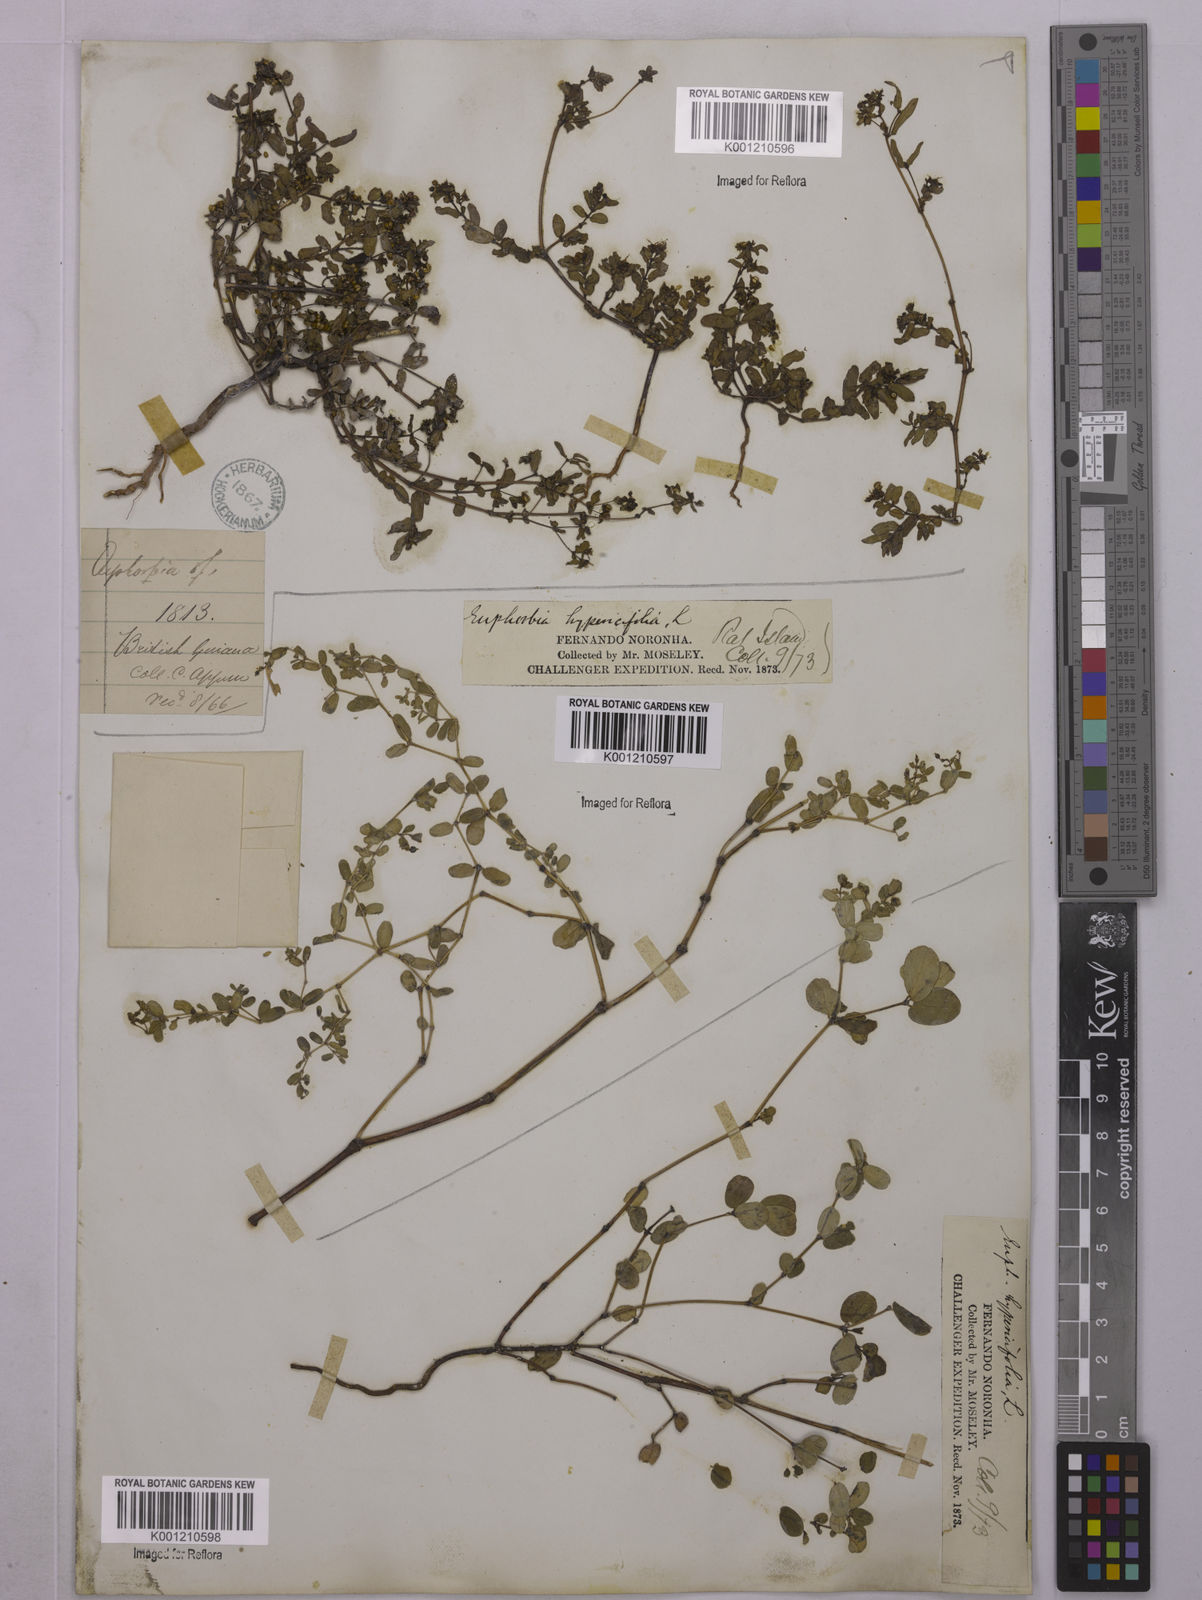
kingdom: Plantae
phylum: Tracheophyta
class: Magnoliopsida
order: Malpighiales
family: Euphorbiaceae
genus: Euphorbia
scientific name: Euphorbia hyssopifolia
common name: Hyssopleaf sandmat
